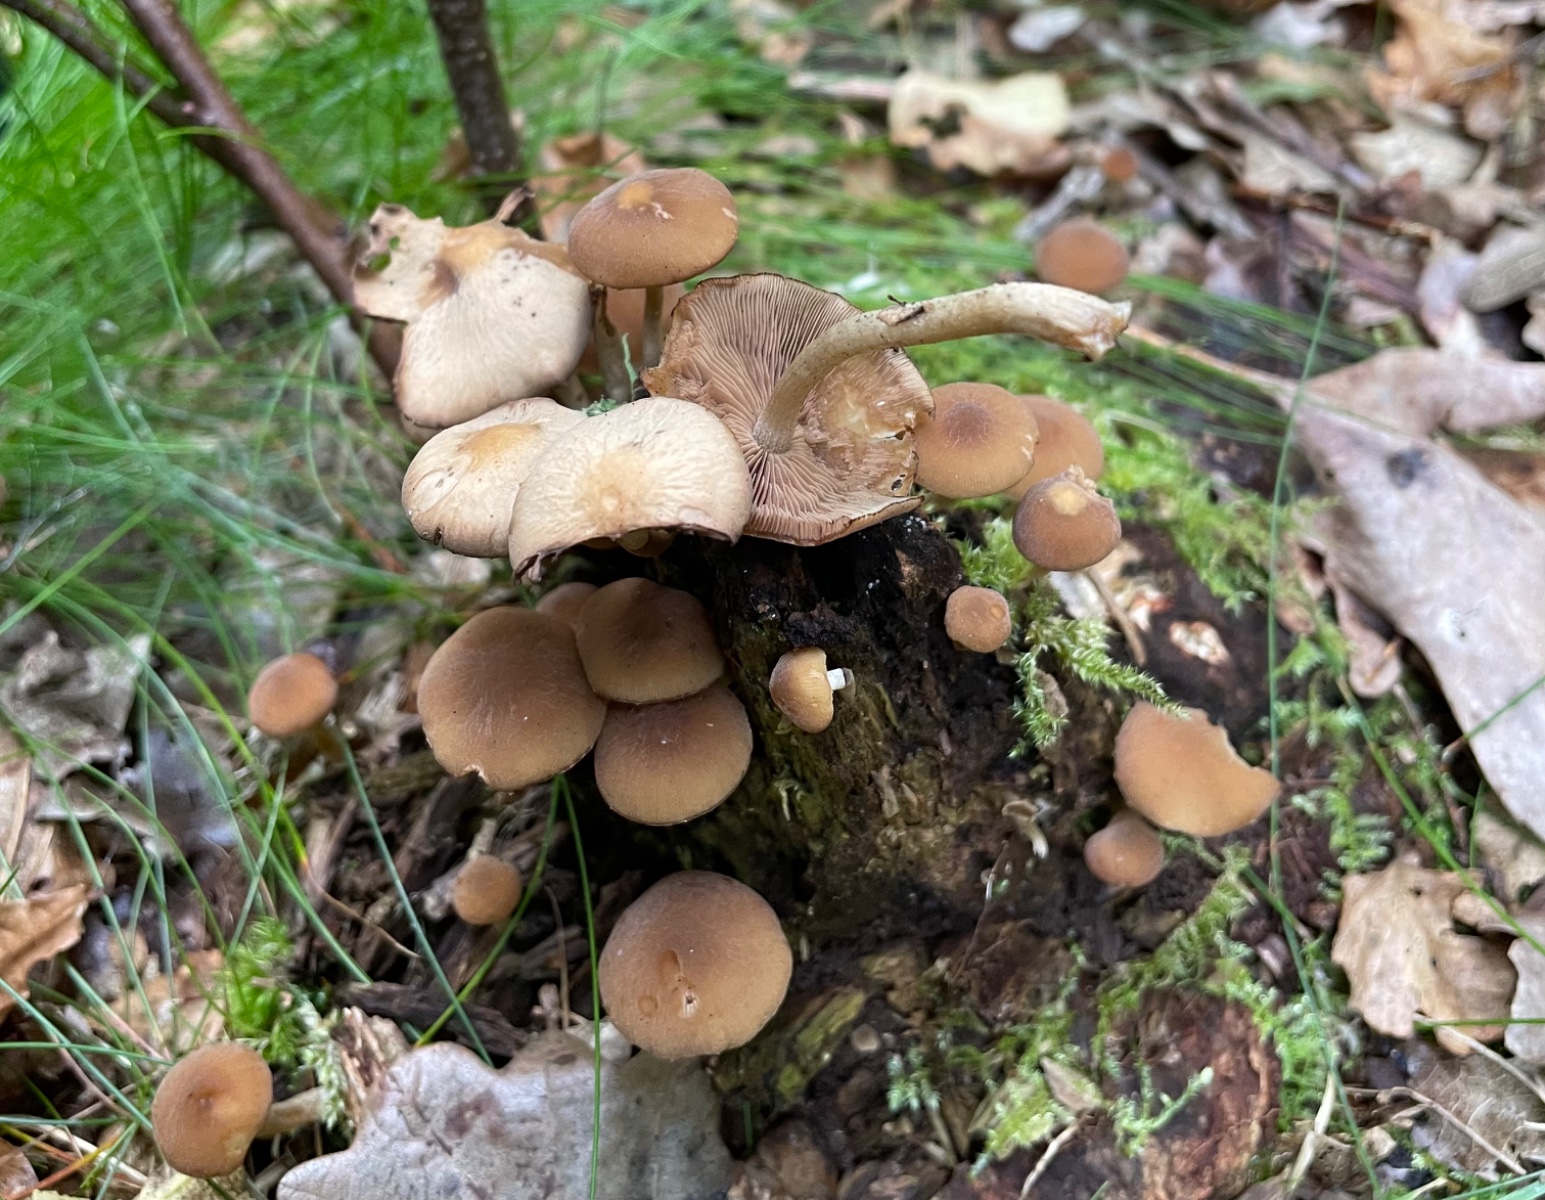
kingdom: Fungi
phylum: Basidiomycota
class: Agaricomycetes
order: Agaricales
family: Psathyrellaceae
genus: Psathyrella
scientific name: Psathyrella piluliformis
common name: lysstokket mørkhat
